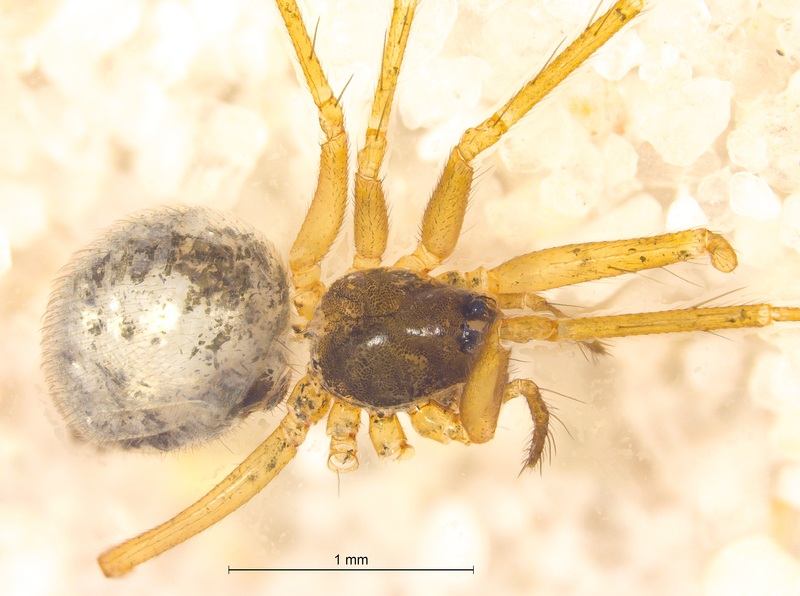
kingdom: Animalia
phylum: Arthropoda
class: Arachnida
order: Araneae
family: Linyphiidae
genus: Tenuiphantes
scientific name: Tenuiphantes flavipes
